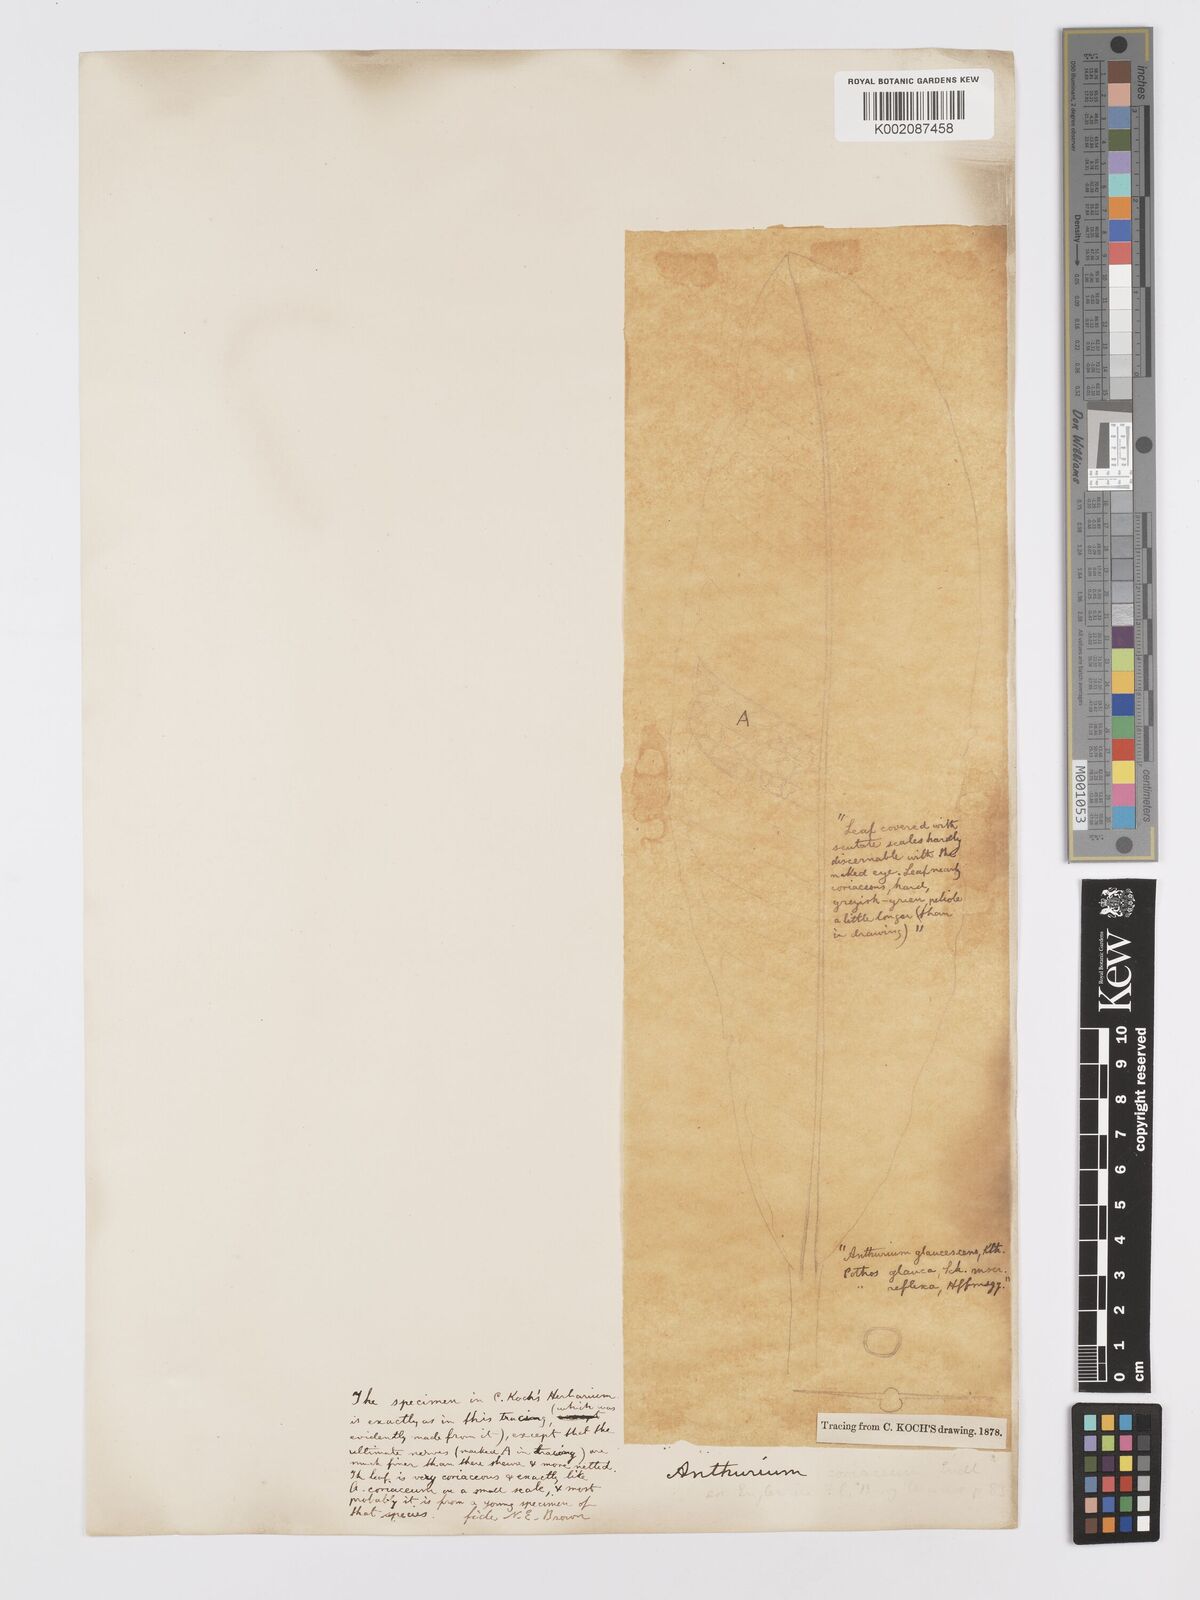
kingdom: Plantae
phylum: Tracheophyta
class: Liliopsida
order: Alismatales
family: Araceae
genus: Anthurium
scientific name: Anthurium
